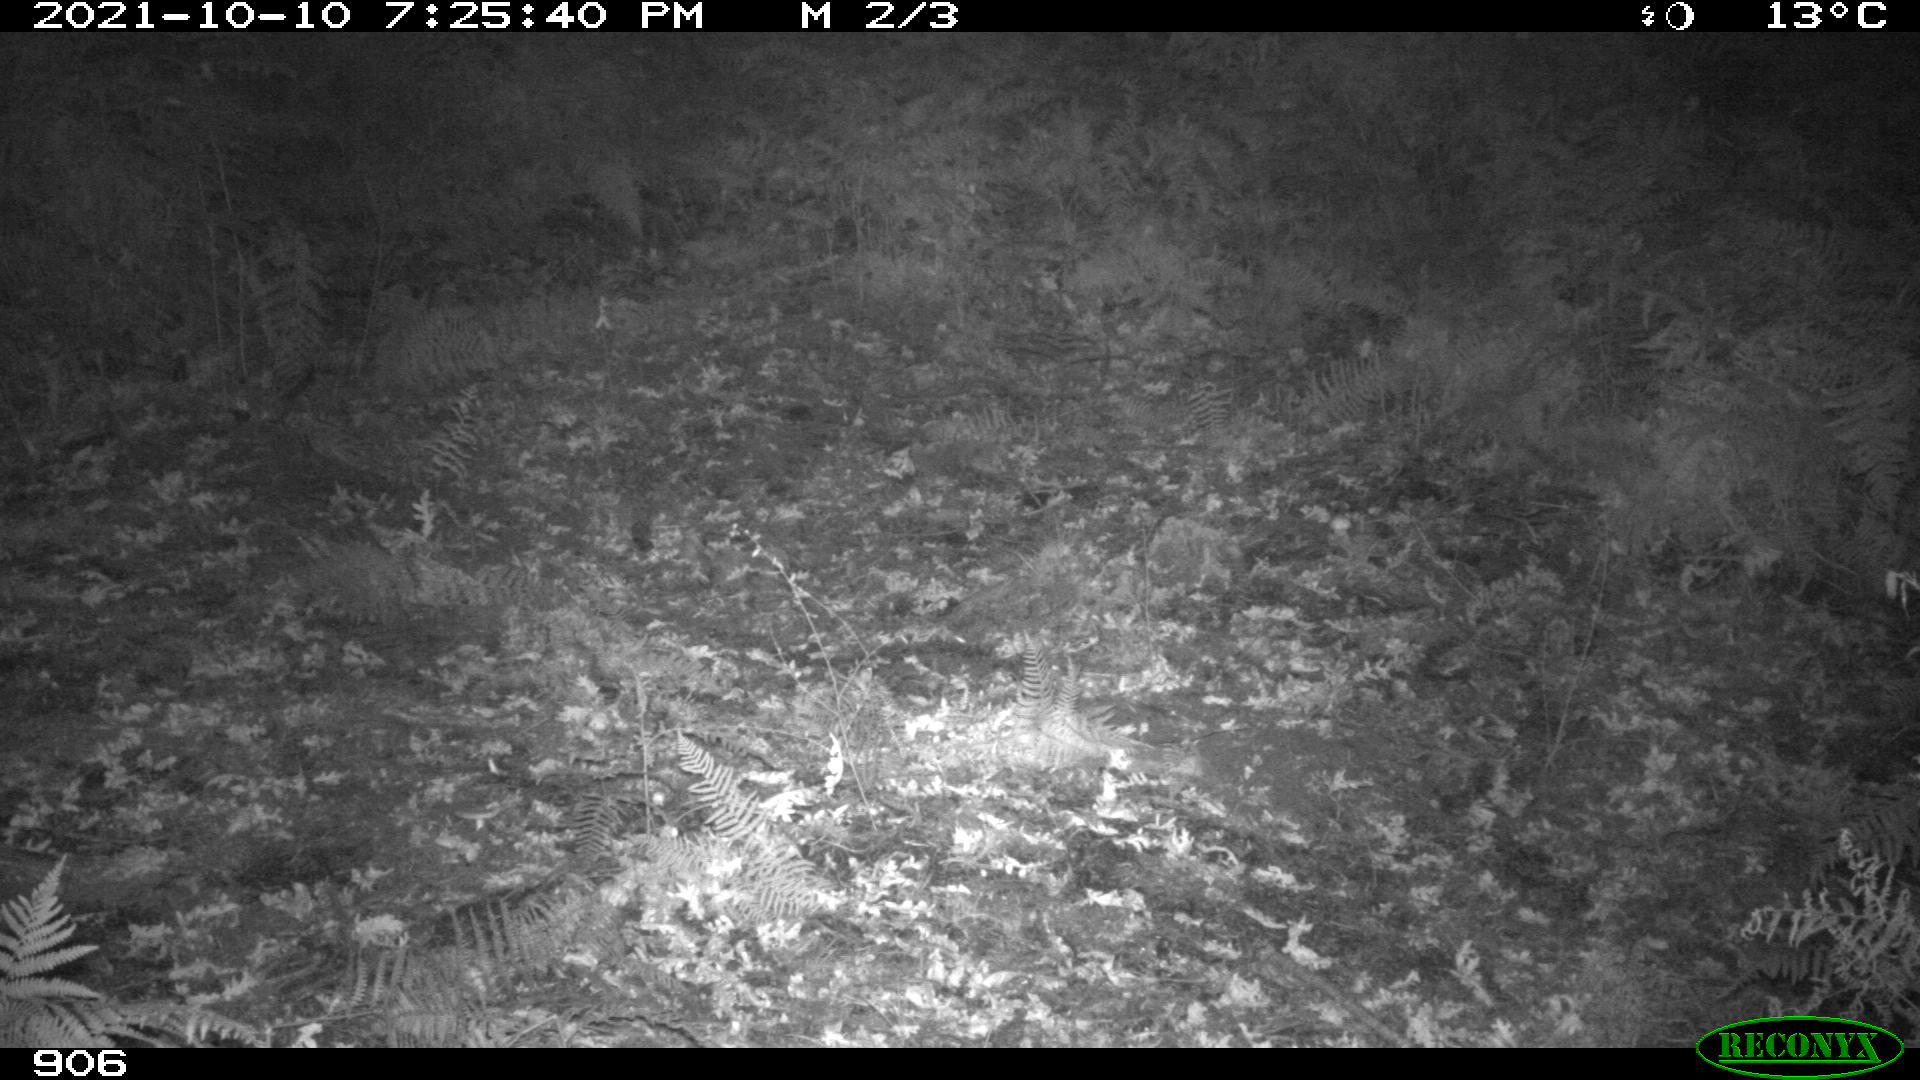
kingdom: Animalia
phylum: Chordata
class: Mammalia
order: Artiodactyla
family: Cervidae
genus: Capreolus
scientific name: Capreolus capreolus
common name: Western roe deer
